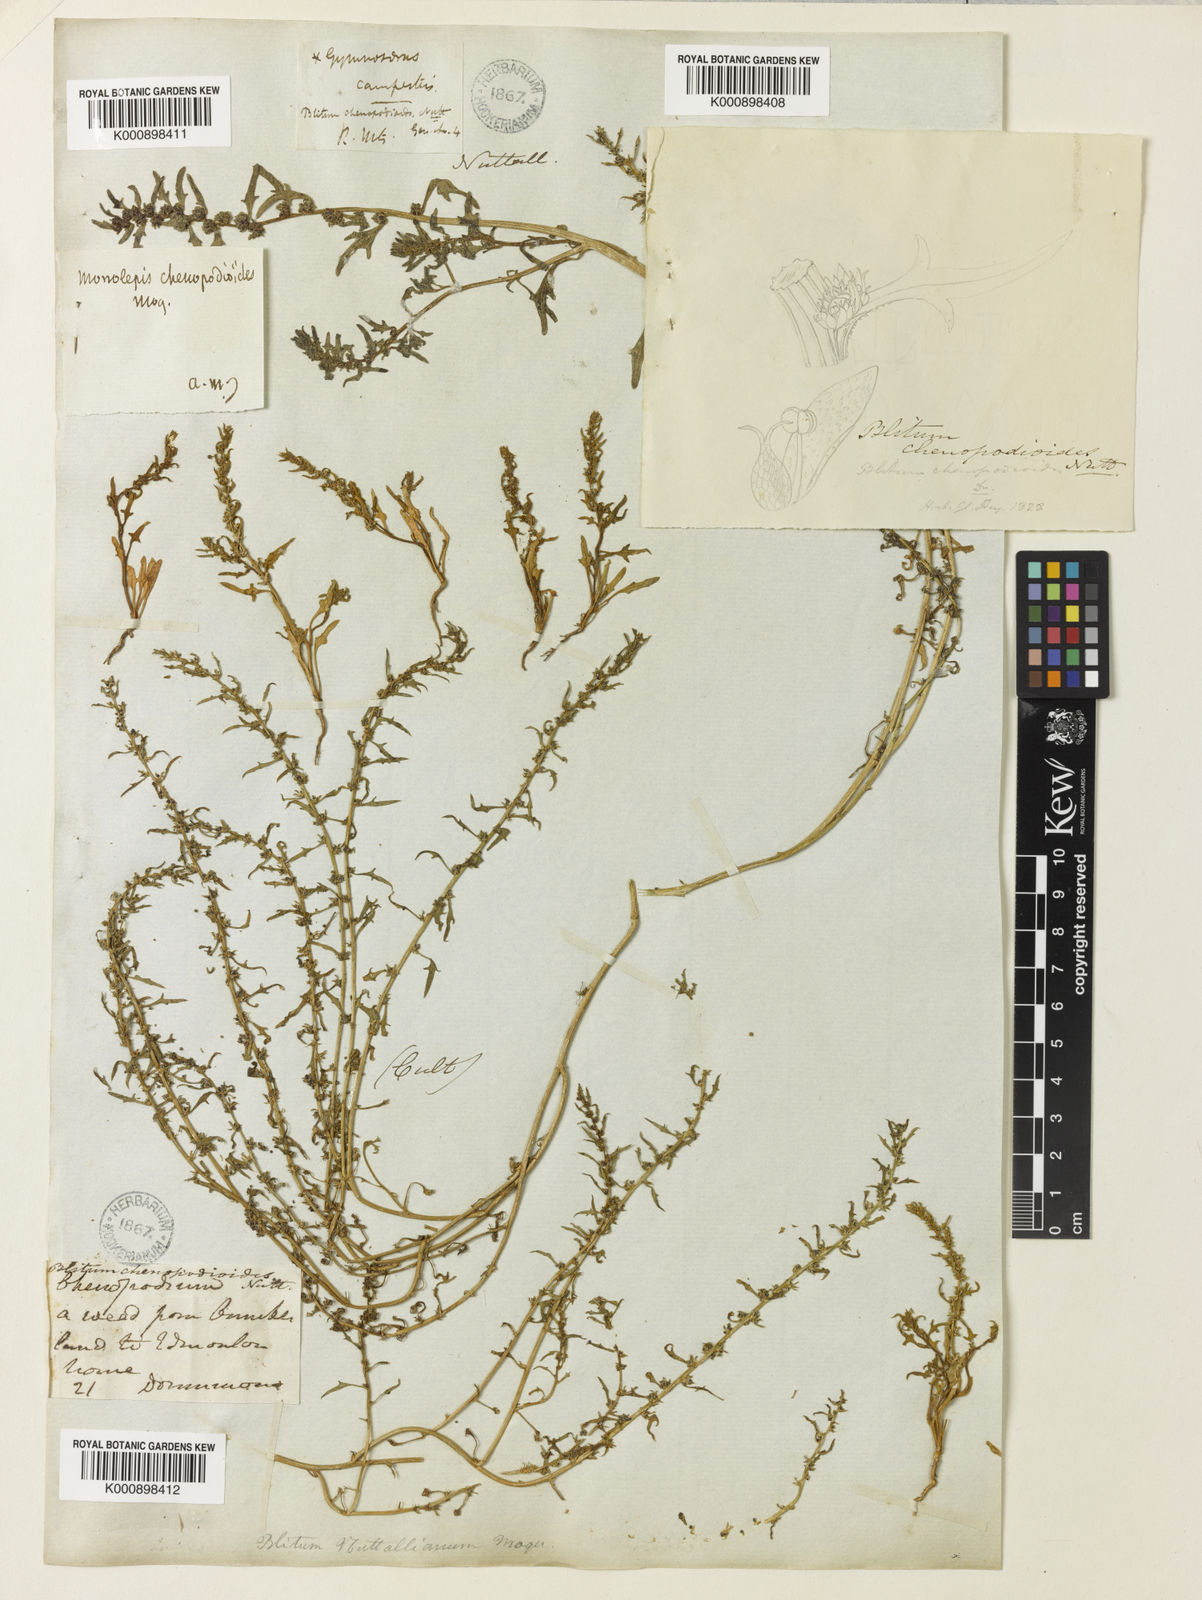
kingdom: Plantae
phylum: Tracheophyta
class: Magnoliopsida
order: Caryophyllales
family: Amaranthaceae
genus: Blitum
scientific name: Blitum nuttallianum
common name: Poverty-weed
